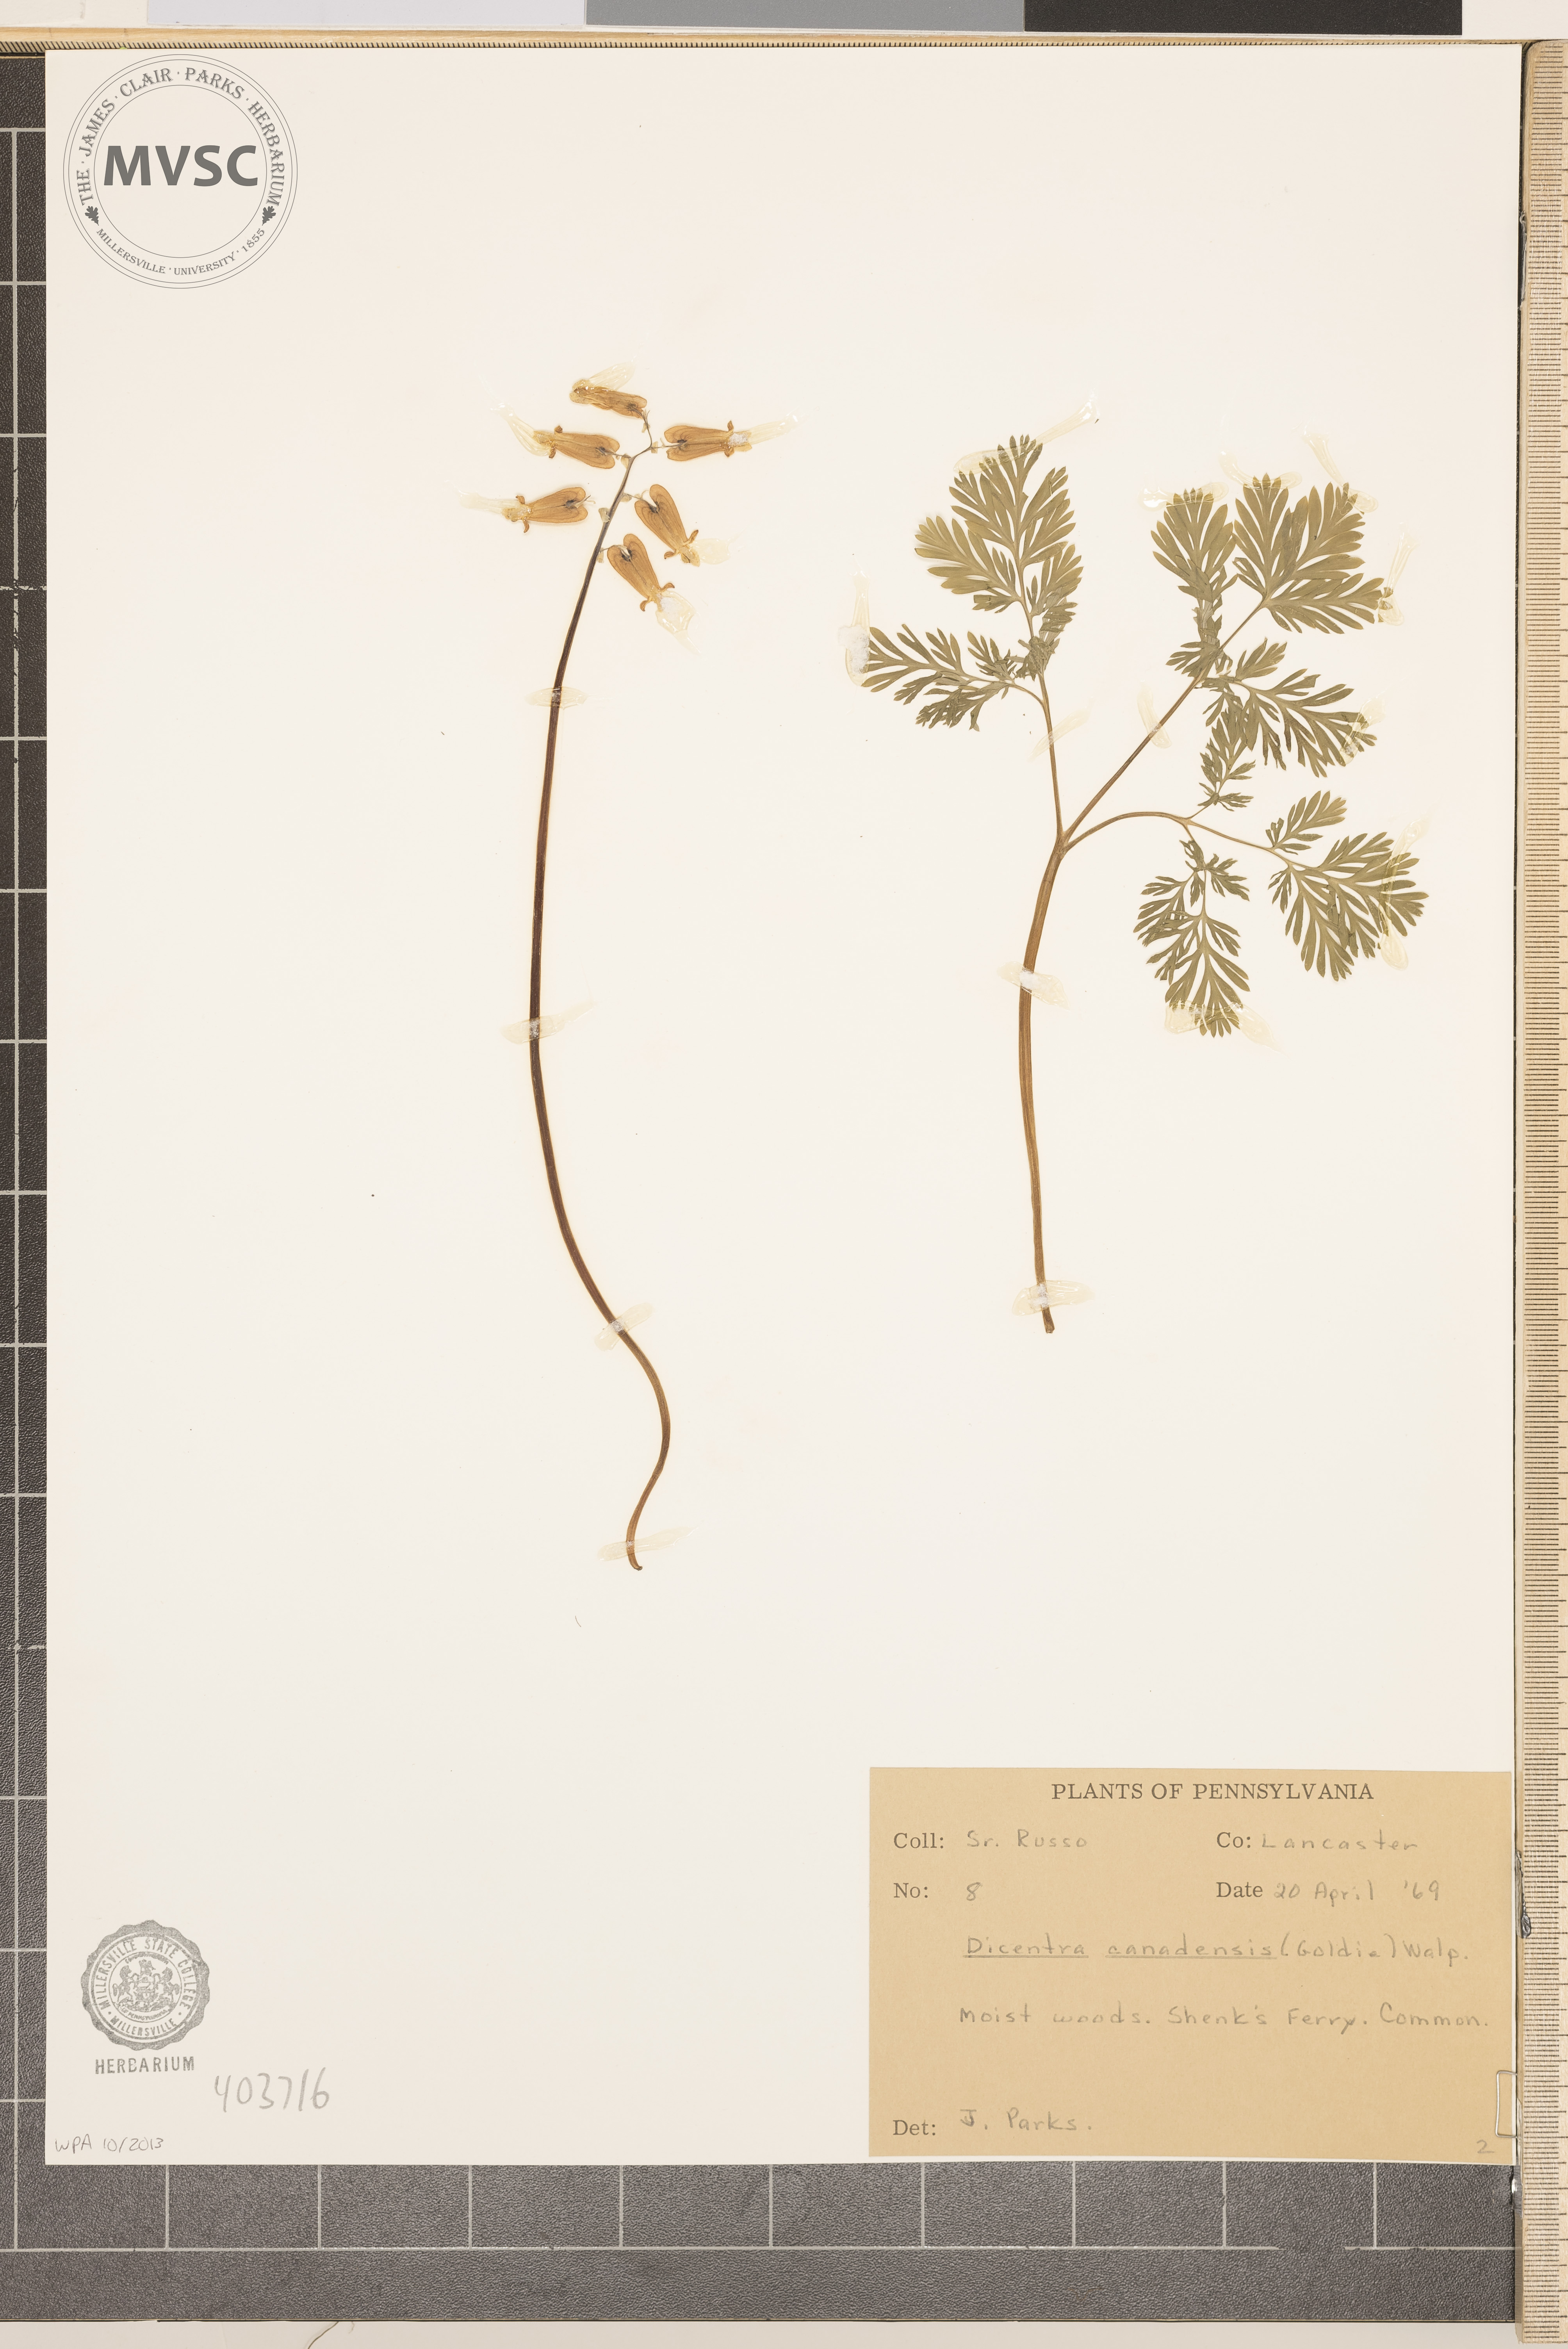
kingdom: Plantae
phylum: Tracheophyta
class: Magnoliopsida
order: Ranunculales
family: Papaveraceae
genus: Dicentra
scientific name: Dicentra canadensis
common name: Squirrel-corn
